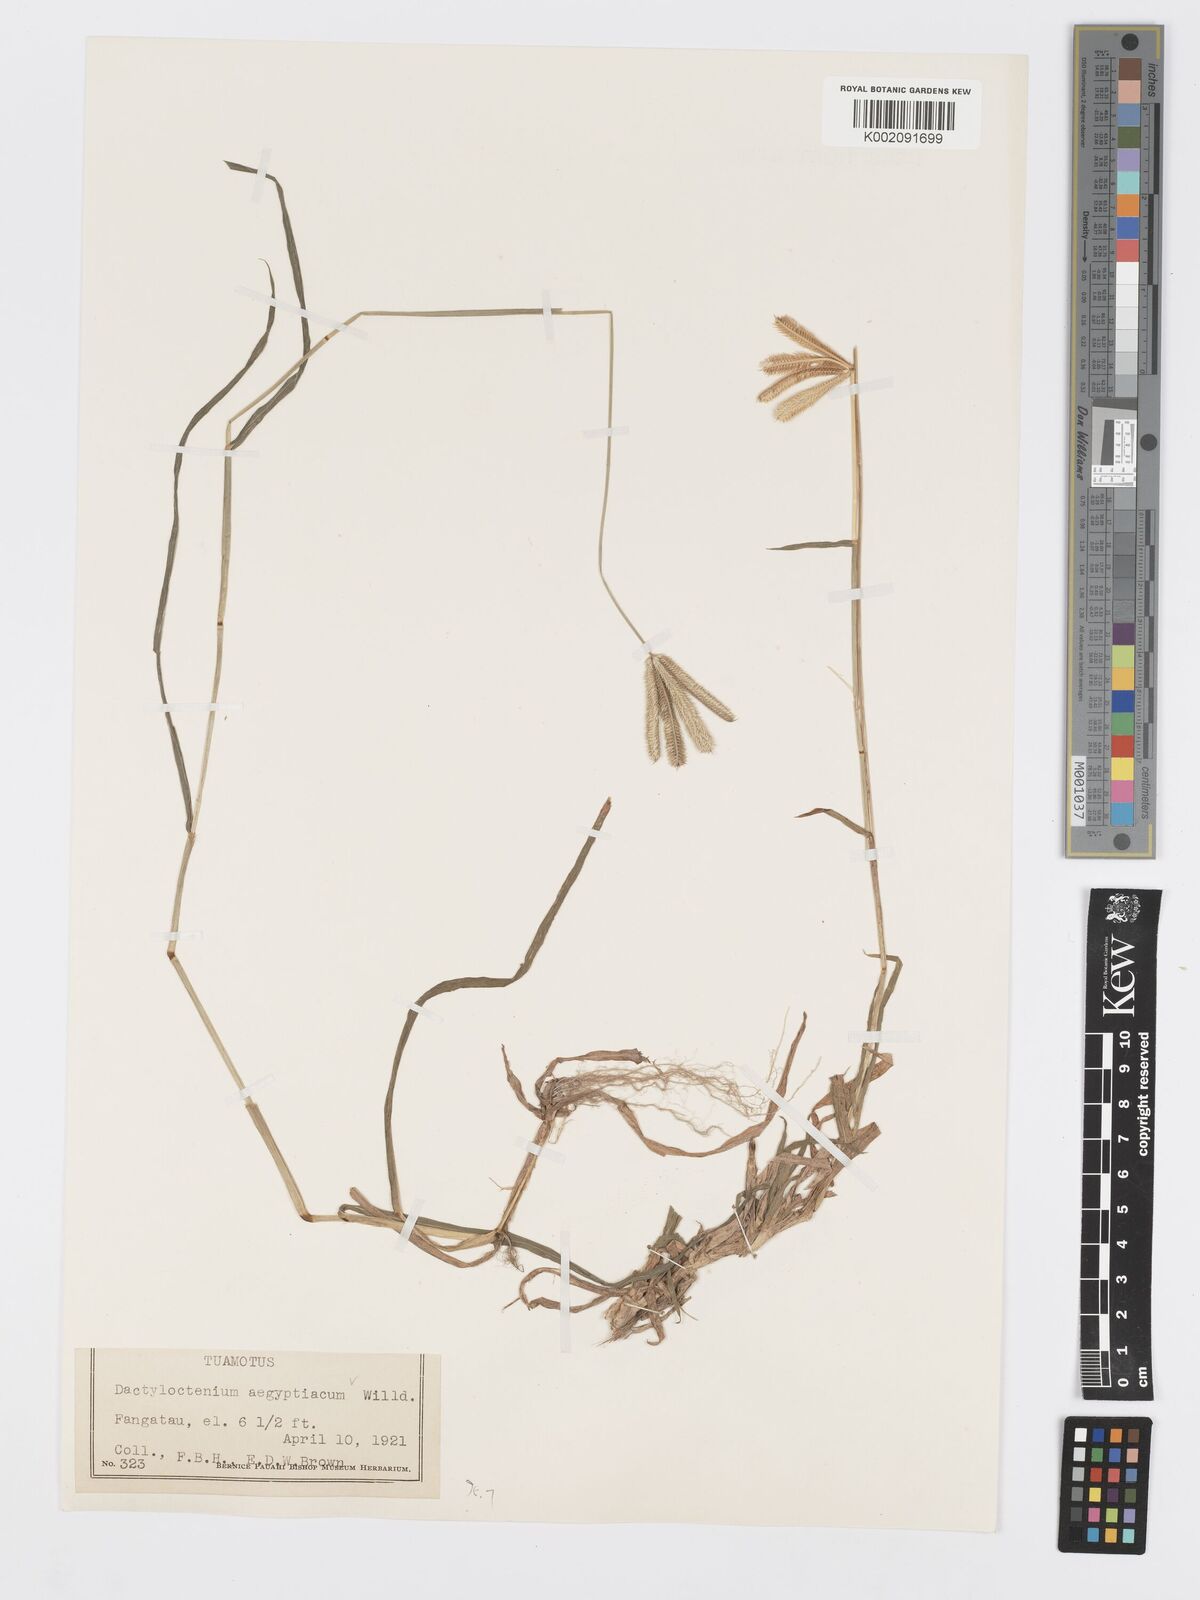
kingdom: Plantae
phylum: Tracheophyta
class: Liliopsida
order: Poales
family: Poaceae
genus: Dactyloctenium
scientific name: Dactyloctenium aegyptium
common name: Egyptian grass
